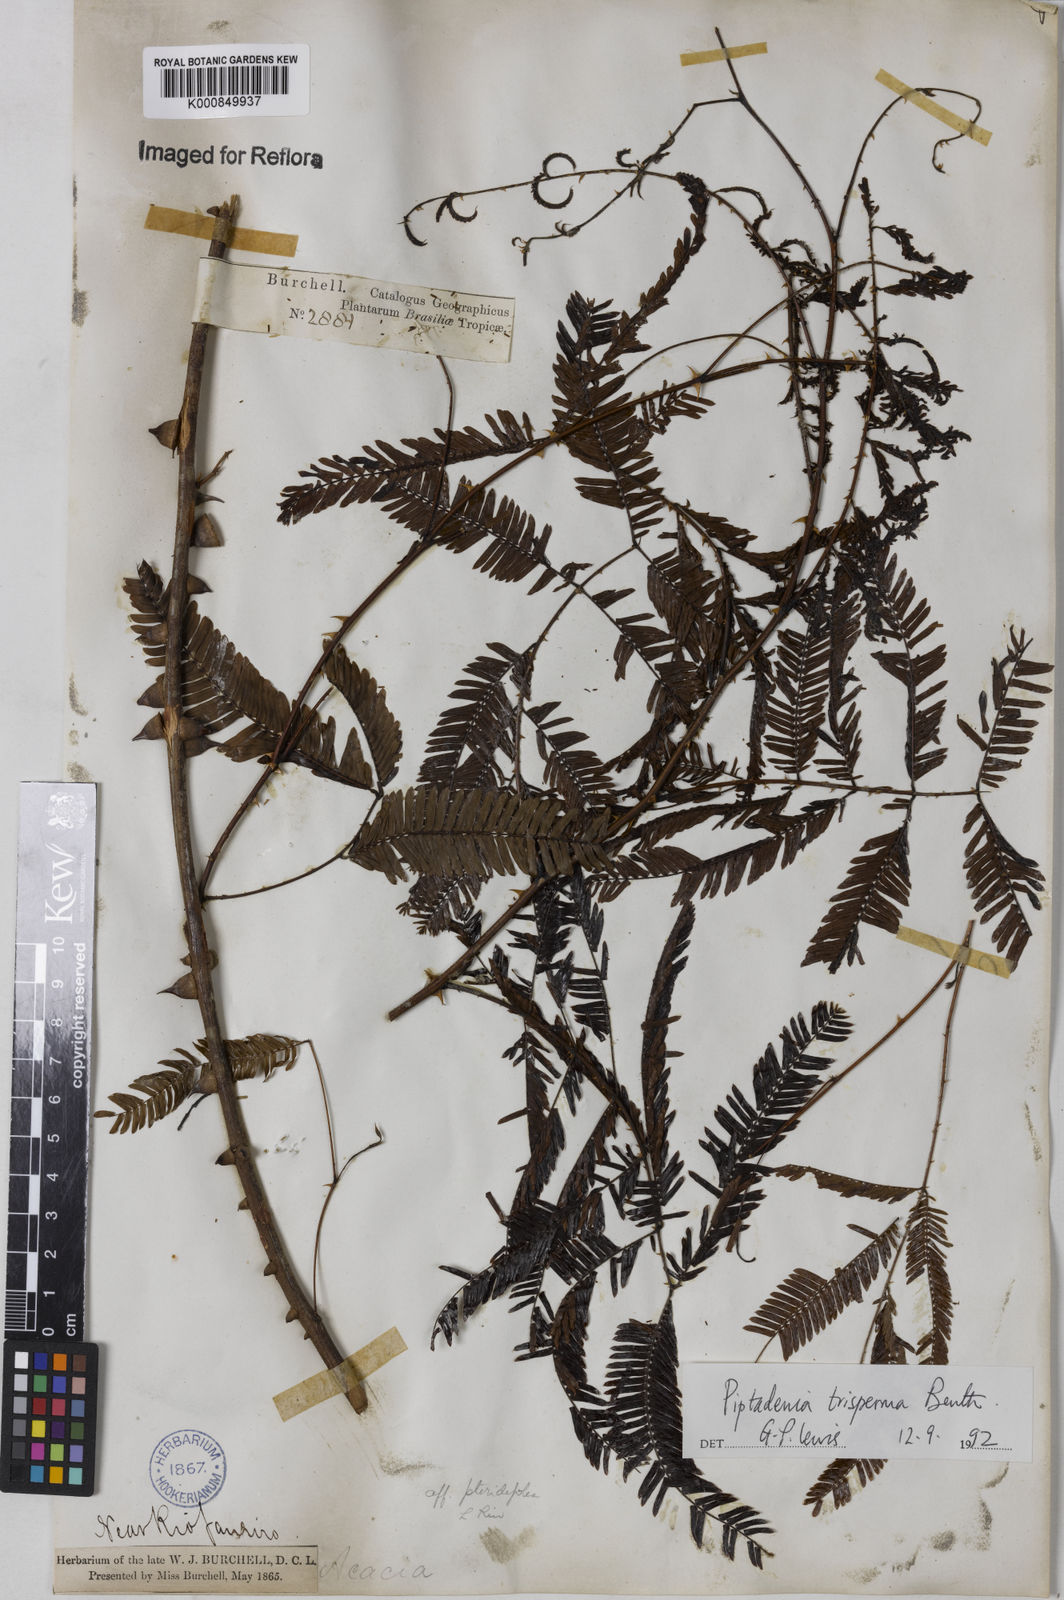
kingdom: Plantae
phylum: Tracheophyta
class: Magnoliopsida
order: Fabales
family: Fabaceae
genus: Piptadenia
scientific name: Piptadenia trisperma
